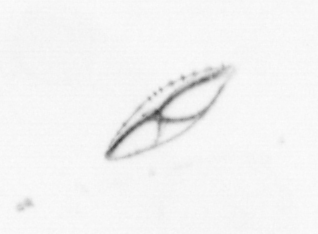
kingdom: Chromista
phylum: Ochrophyta
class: Bacillariophyceae
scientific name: Bacillariophyceae
